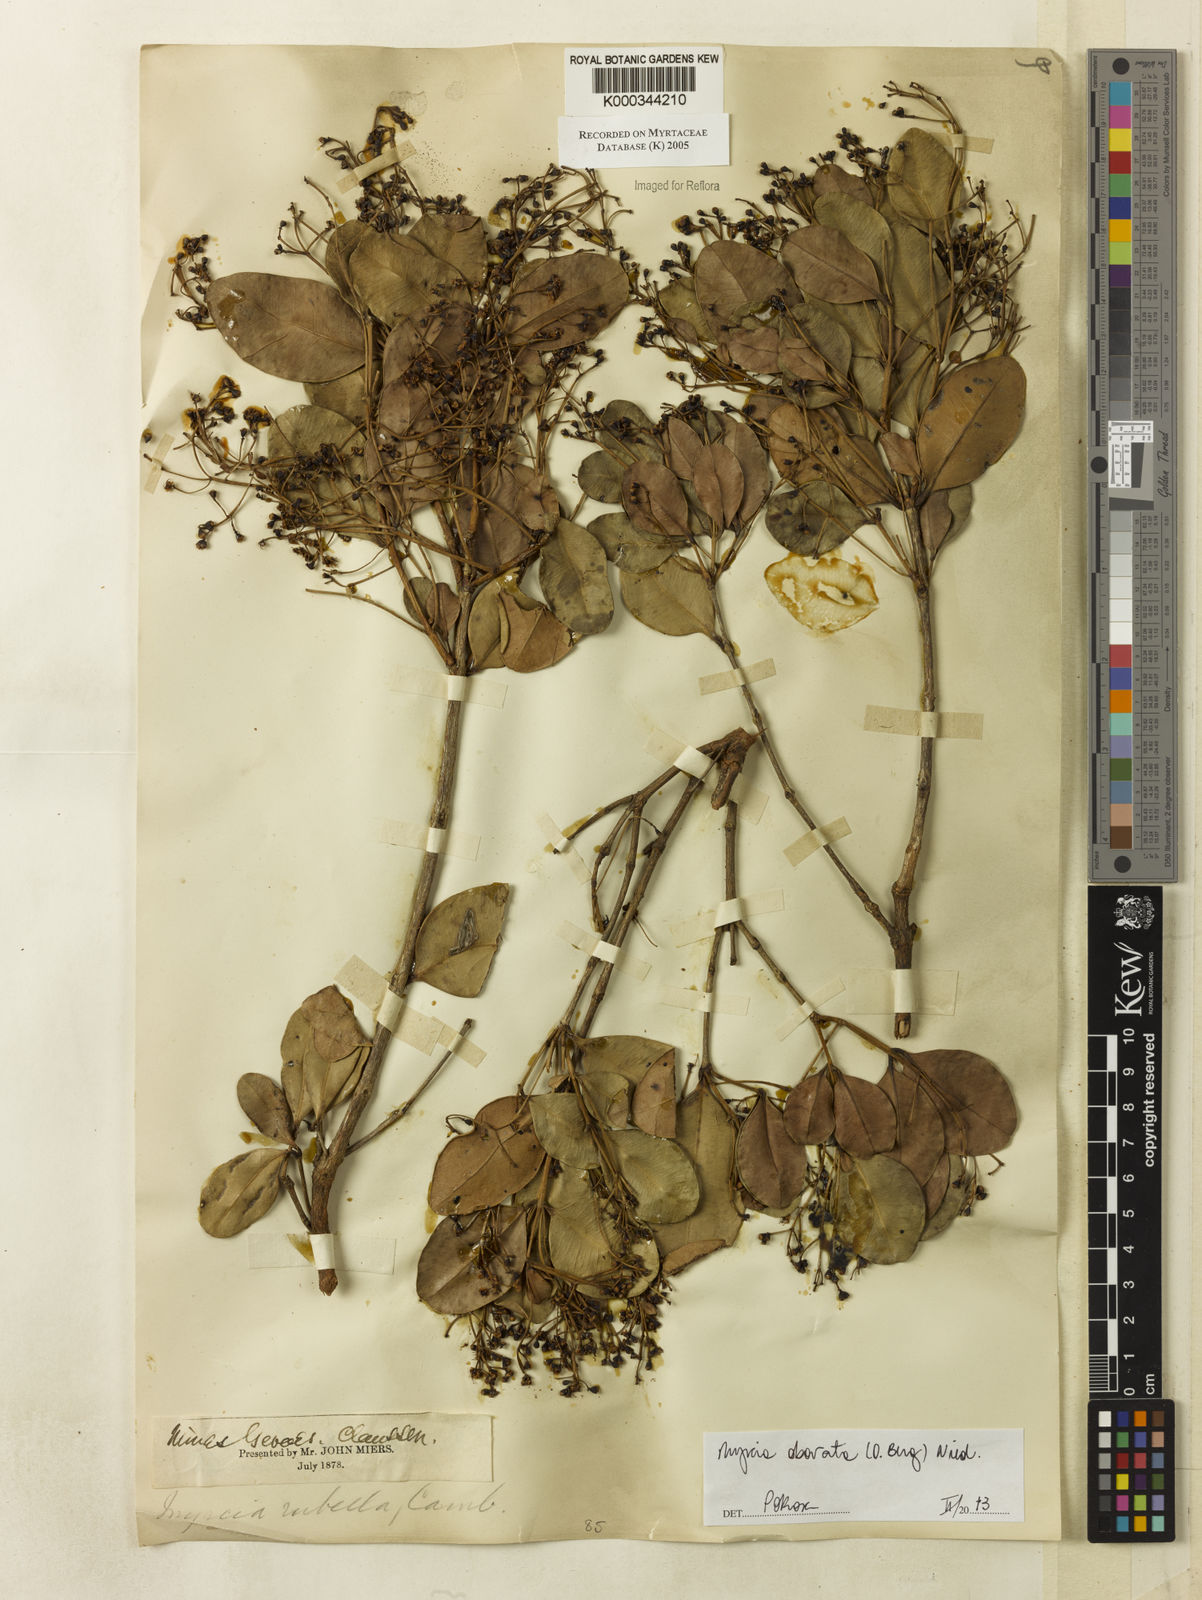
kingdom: Plantae
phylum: Tracheophyta
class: Magnoliopsida
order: Myrtales
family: Myrtaceae
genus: Myrcia
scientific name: Myrcia rubella
